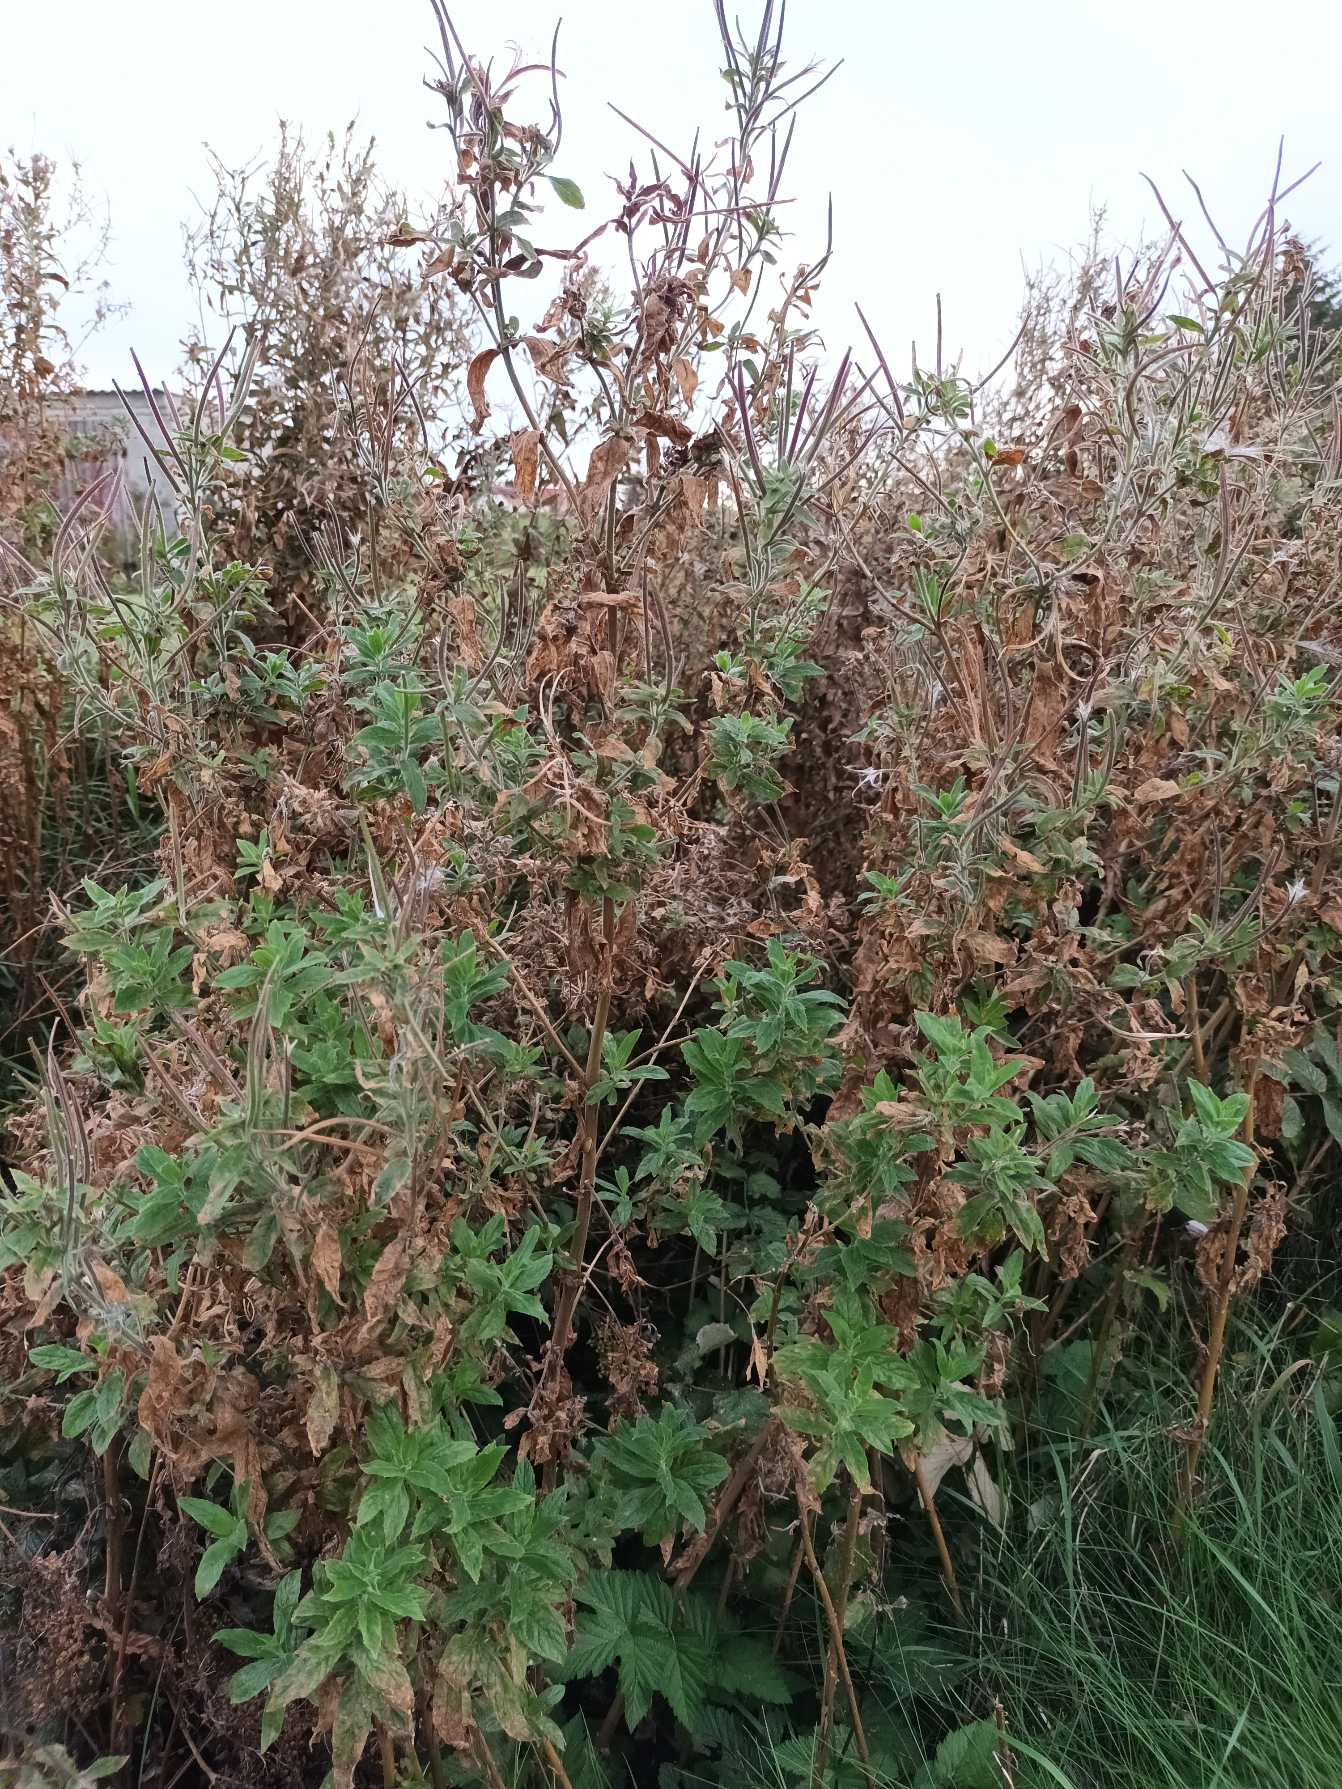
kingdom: Plantae
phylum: Tracheophyta
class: Magnoliopsida
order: Myrtales
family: Onagraceae
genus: Epilobium
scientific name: Epilobium hirsutum
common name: Lådden dueurt
